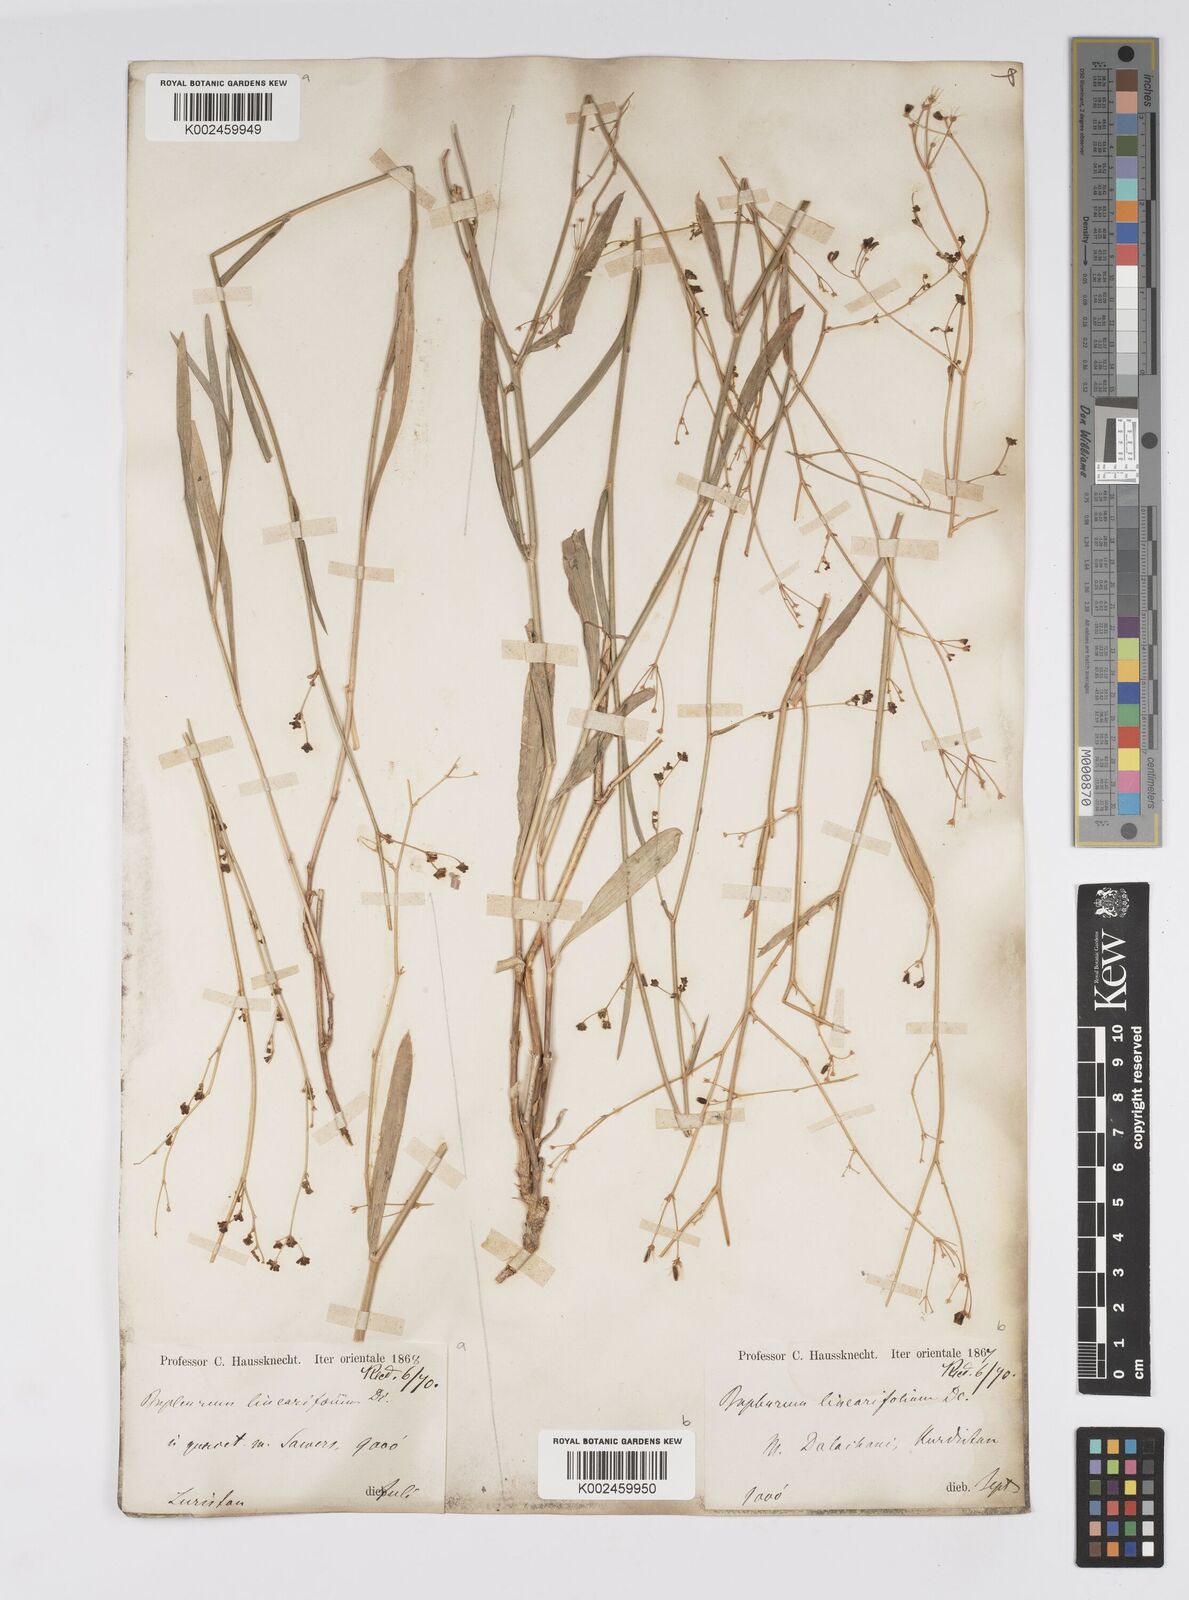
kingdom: Plantae
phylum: Tracheophyta
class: Magnoliopsida
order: Apiales
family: Apiaceae
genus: Bupleurum
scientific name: Bupleurum falcatum
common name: Sickle-leaved hare's-ear
